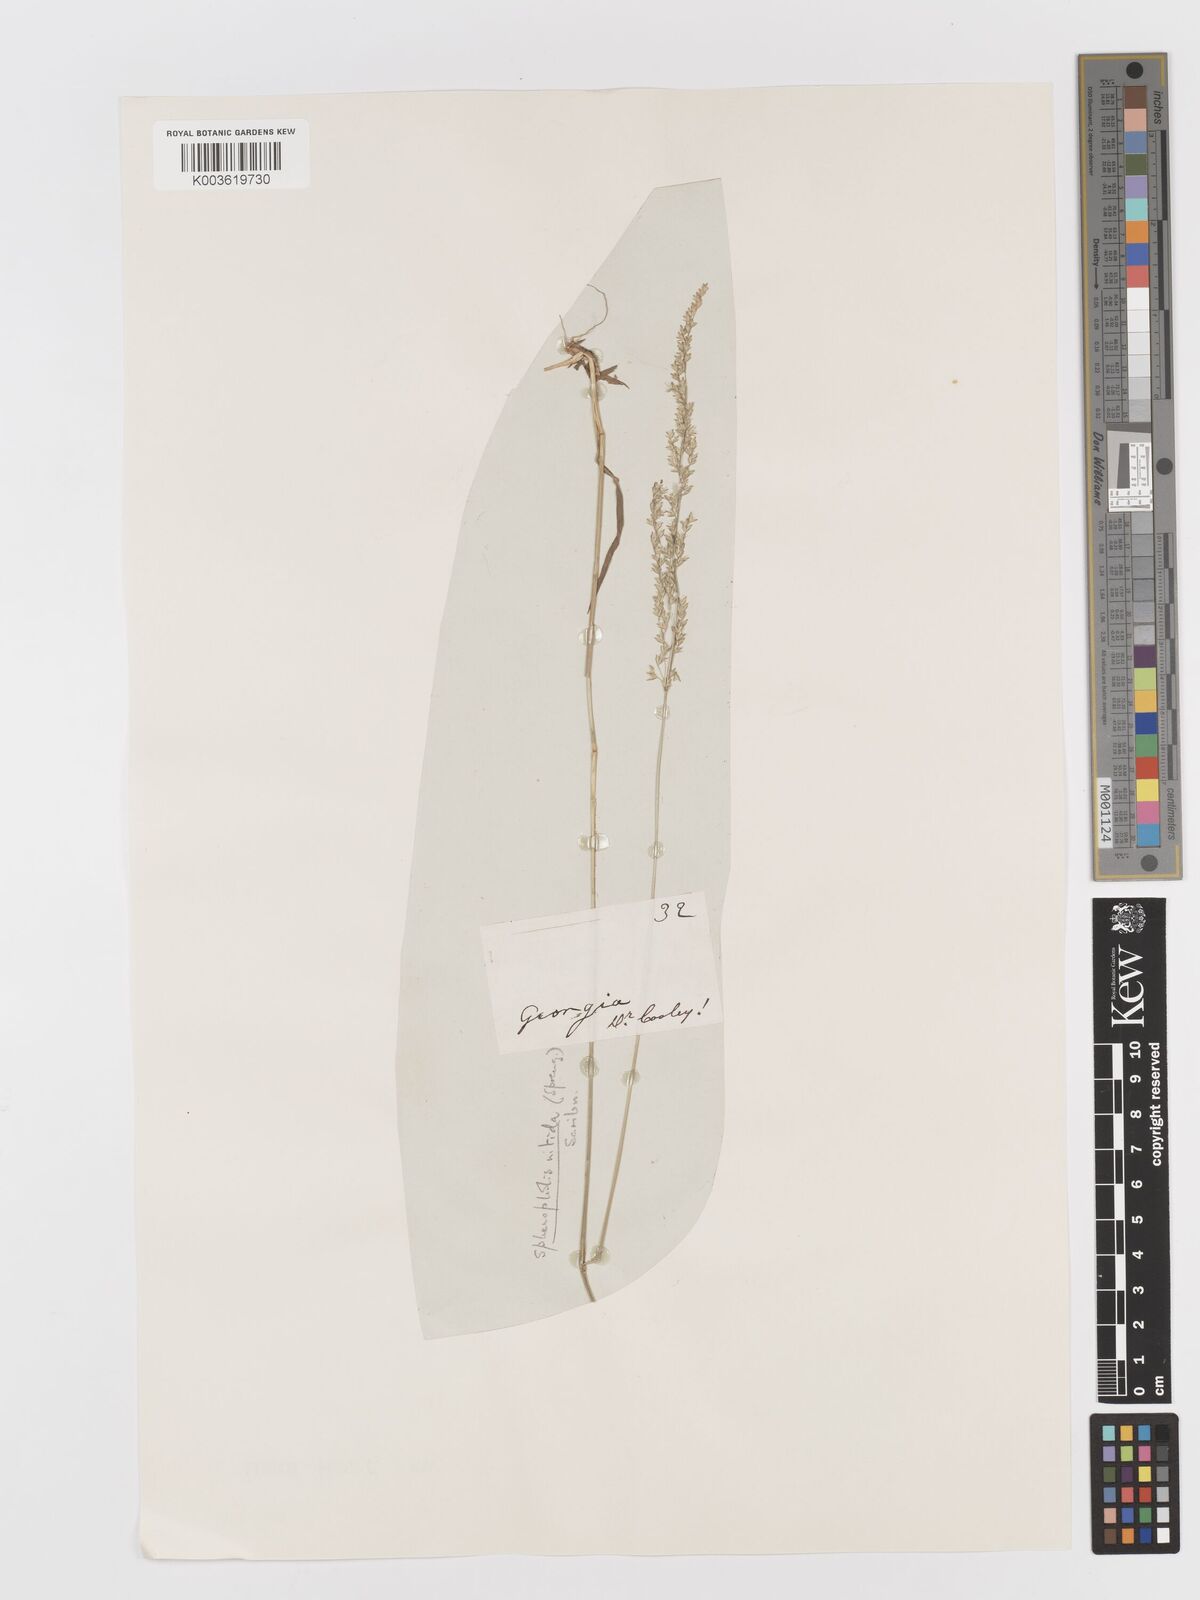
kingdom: Plantae
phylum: Tracheophyta
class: Liliopsida
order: Poales
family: Poaceae
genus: Sphenopholis
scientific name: Sphenopholis nitida
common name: Shiny wedgegrass
